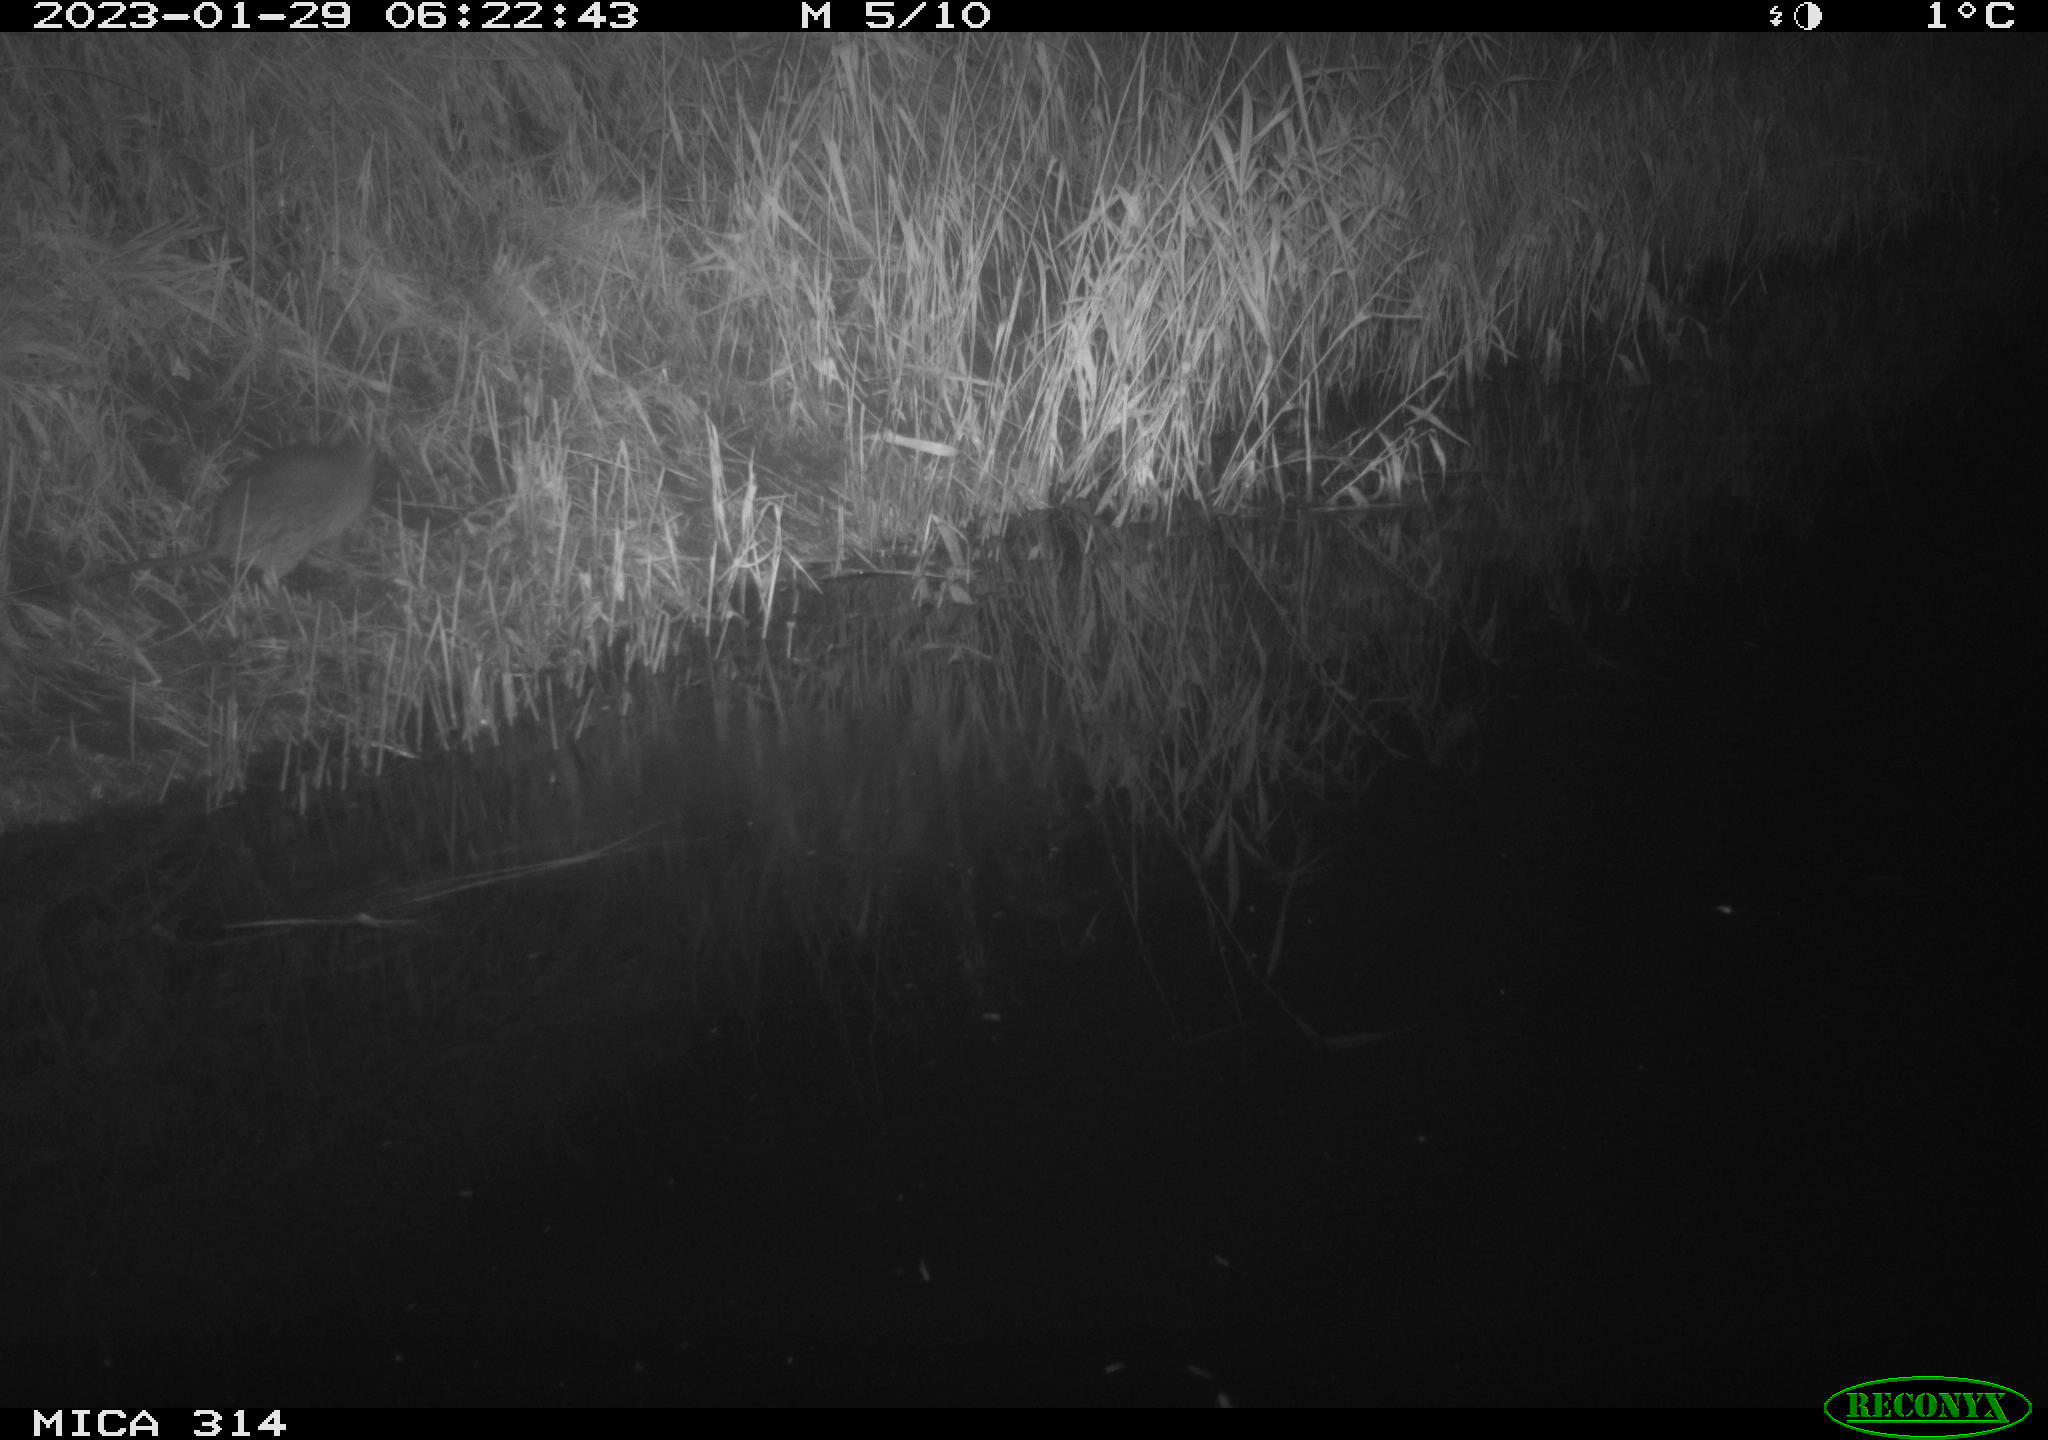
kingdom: Animalia
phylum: Chordata
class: Mammalia
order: Rodentia
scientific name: Rodentia
